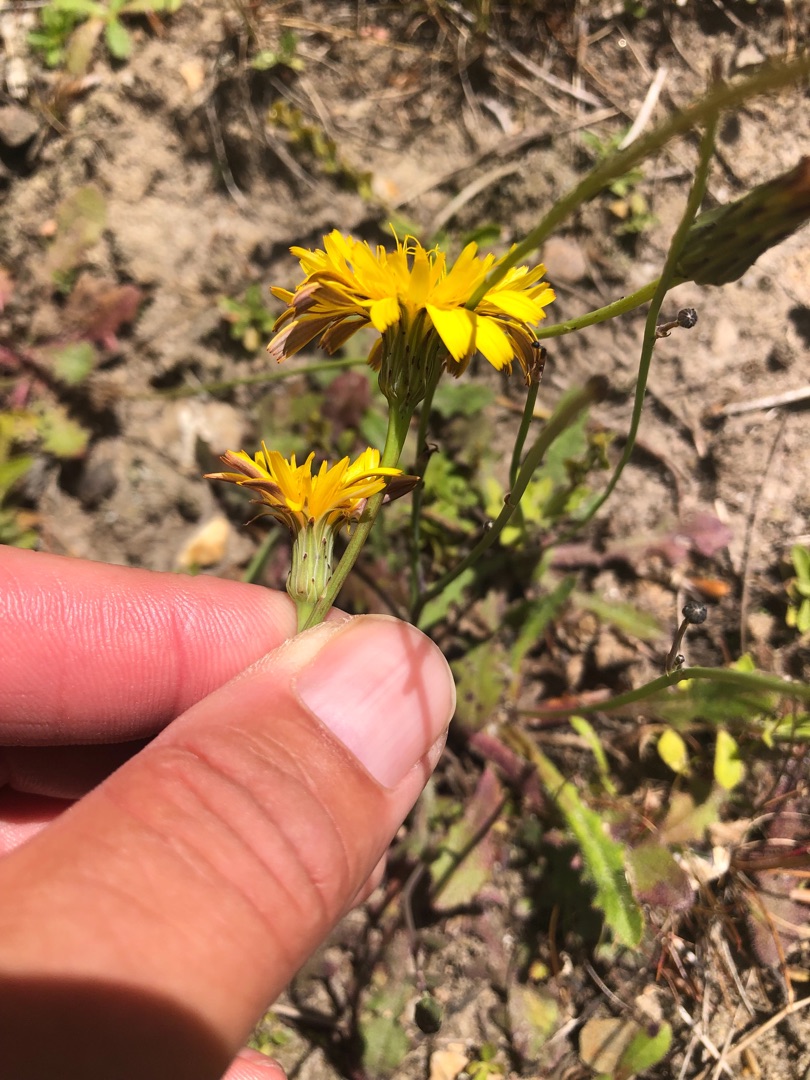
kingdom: Plantae
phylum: Tracheophyta
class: Magnoliopsida
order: Asterales
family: Asteraceae
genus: Hypochaeris
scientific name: Hypochaeris radicata
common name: Almindelig kongepen
